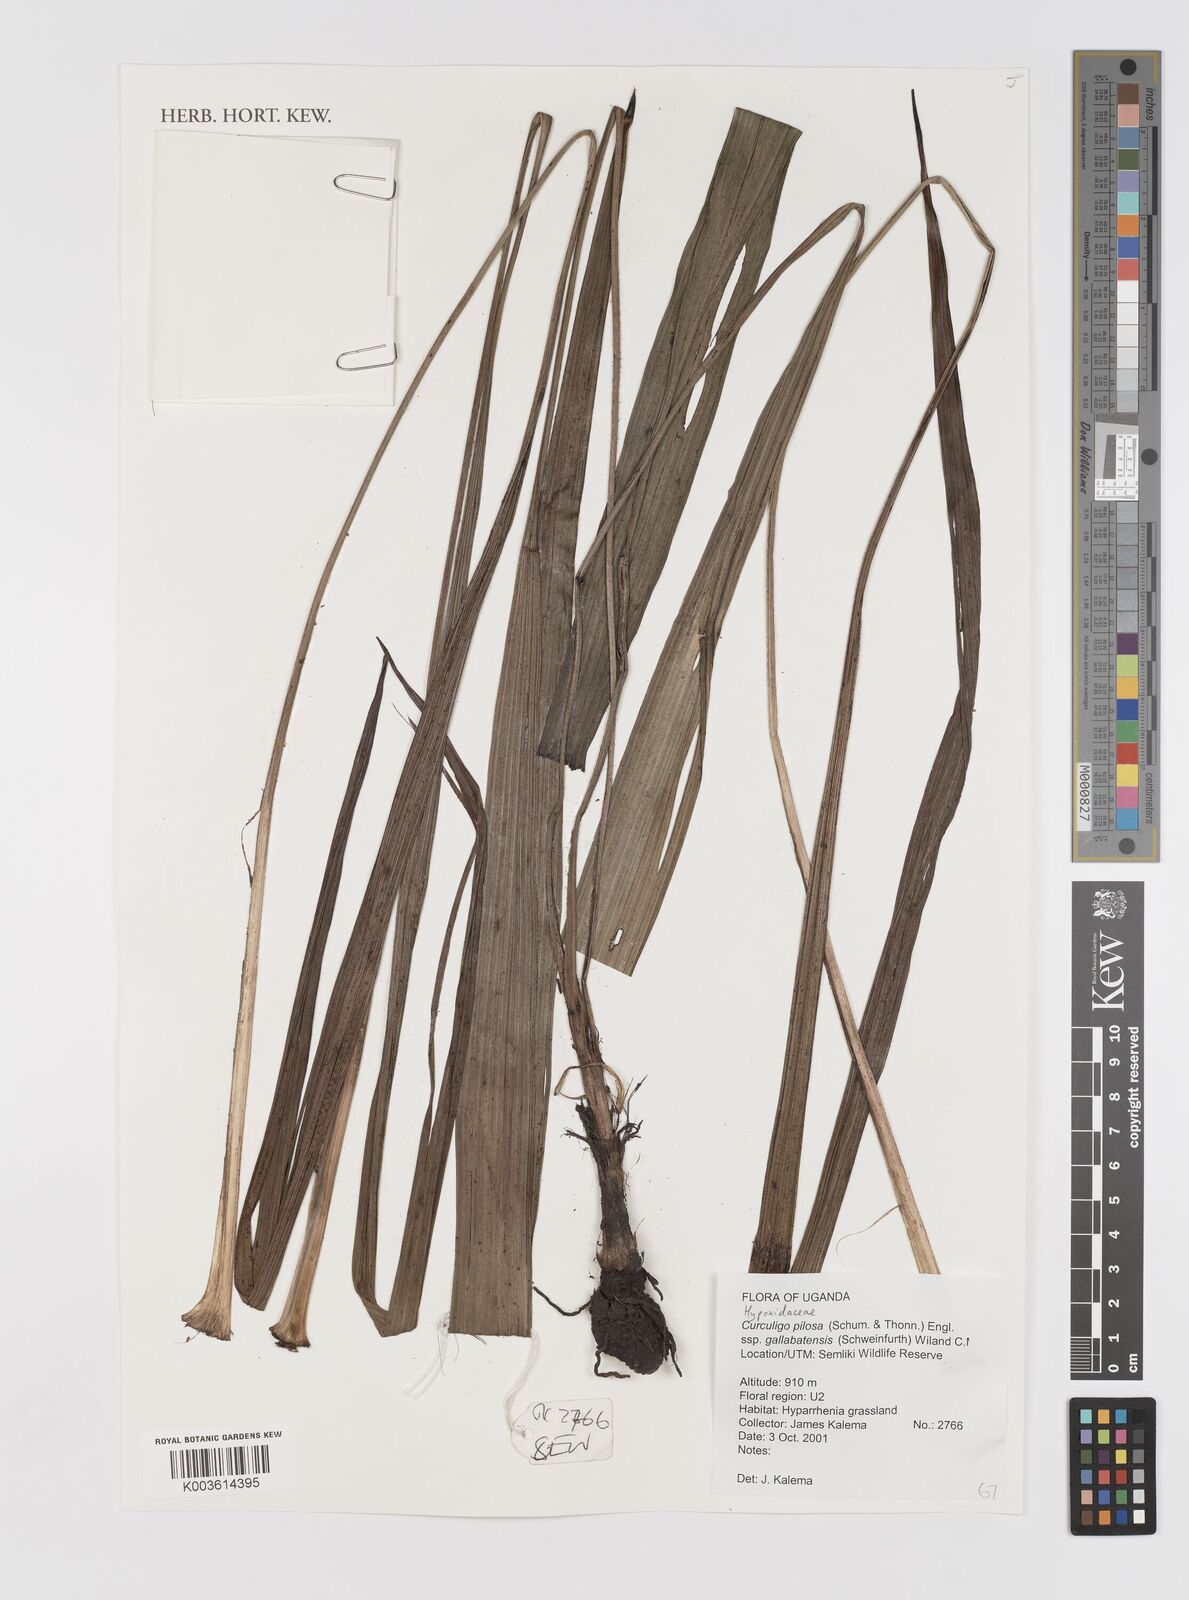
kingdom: Plantae
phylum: Tracheophyta
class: Liliopsida
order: Asparagales
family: Hypoxidaceae
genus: Curculigo
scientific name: Curculigo pilosa
